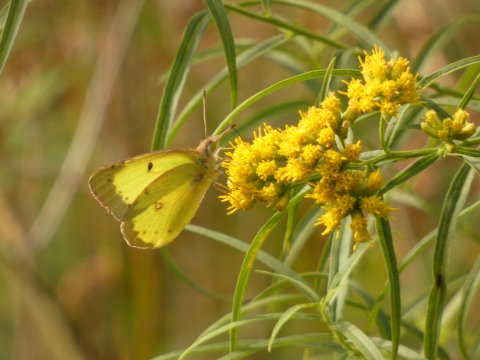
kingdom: Animalia
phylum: Arthropoda
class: Insecta
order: Lepidoptera
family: Pieridae
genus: Colias
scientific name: Colias philodice
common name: Clouded Sulphur
